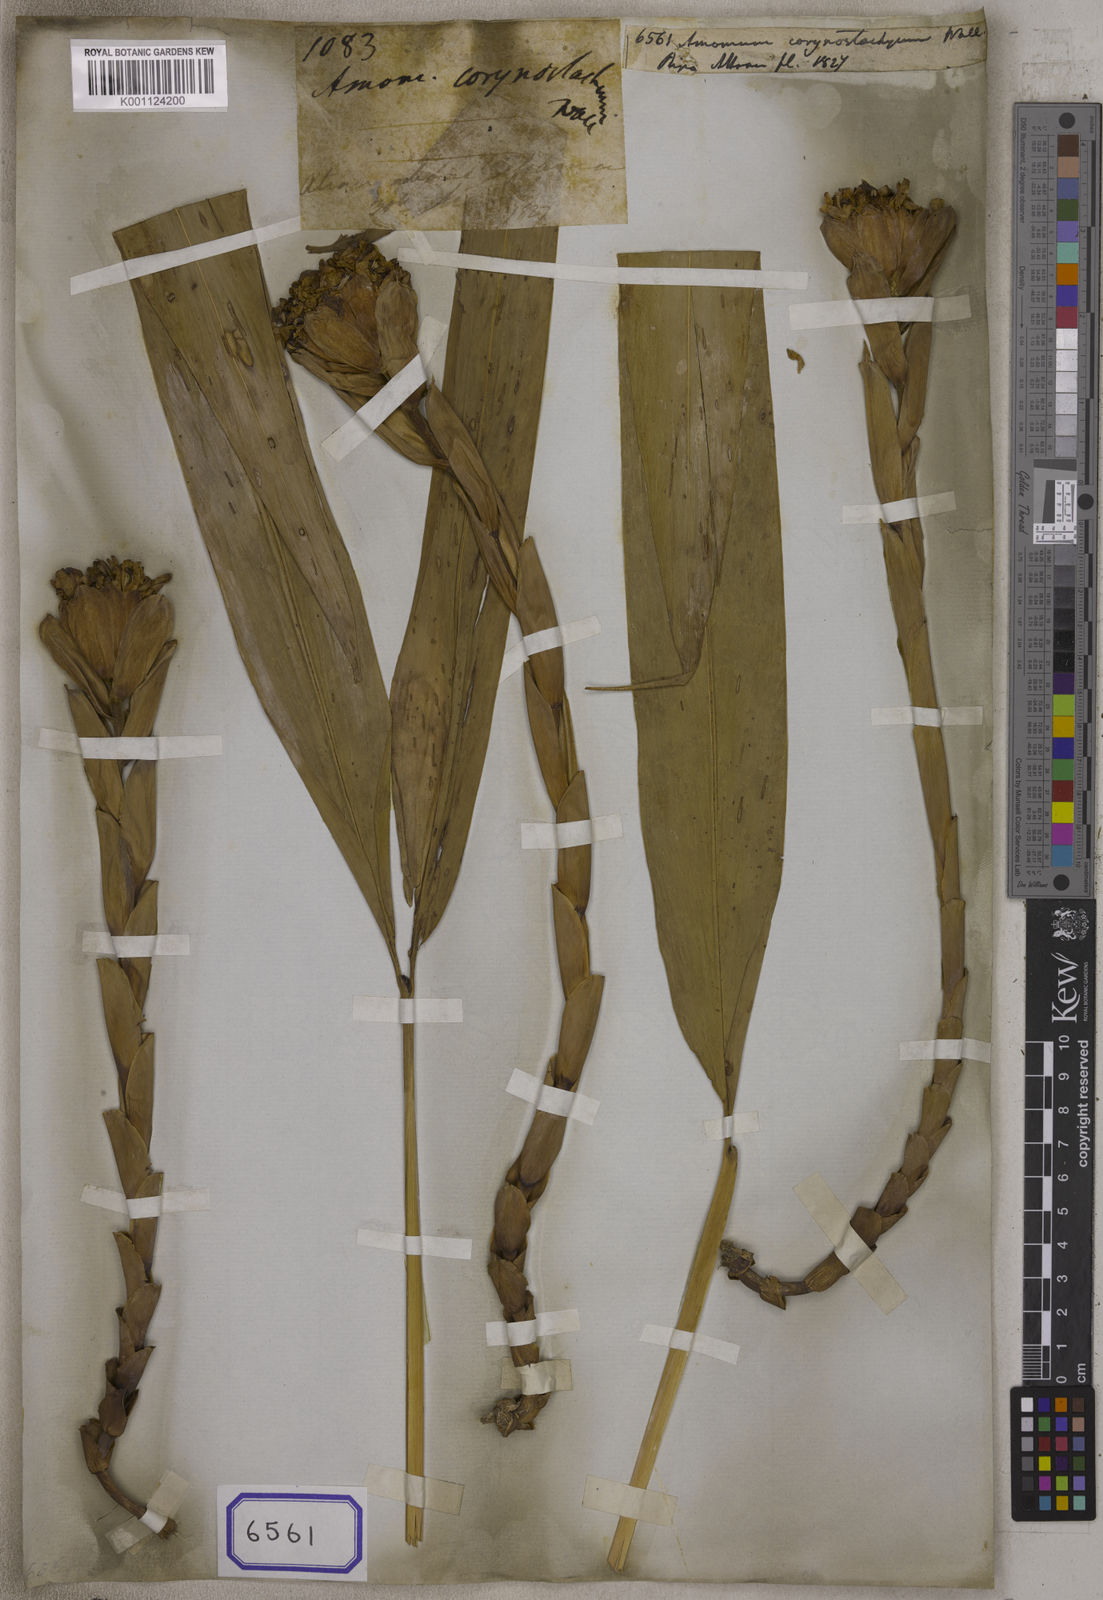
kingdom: Plantae
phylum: Tracheophyta
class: Liliopsida
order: Zingiberales
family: Zingiberaceae
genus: Meistera
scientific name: Meistera koenigii
